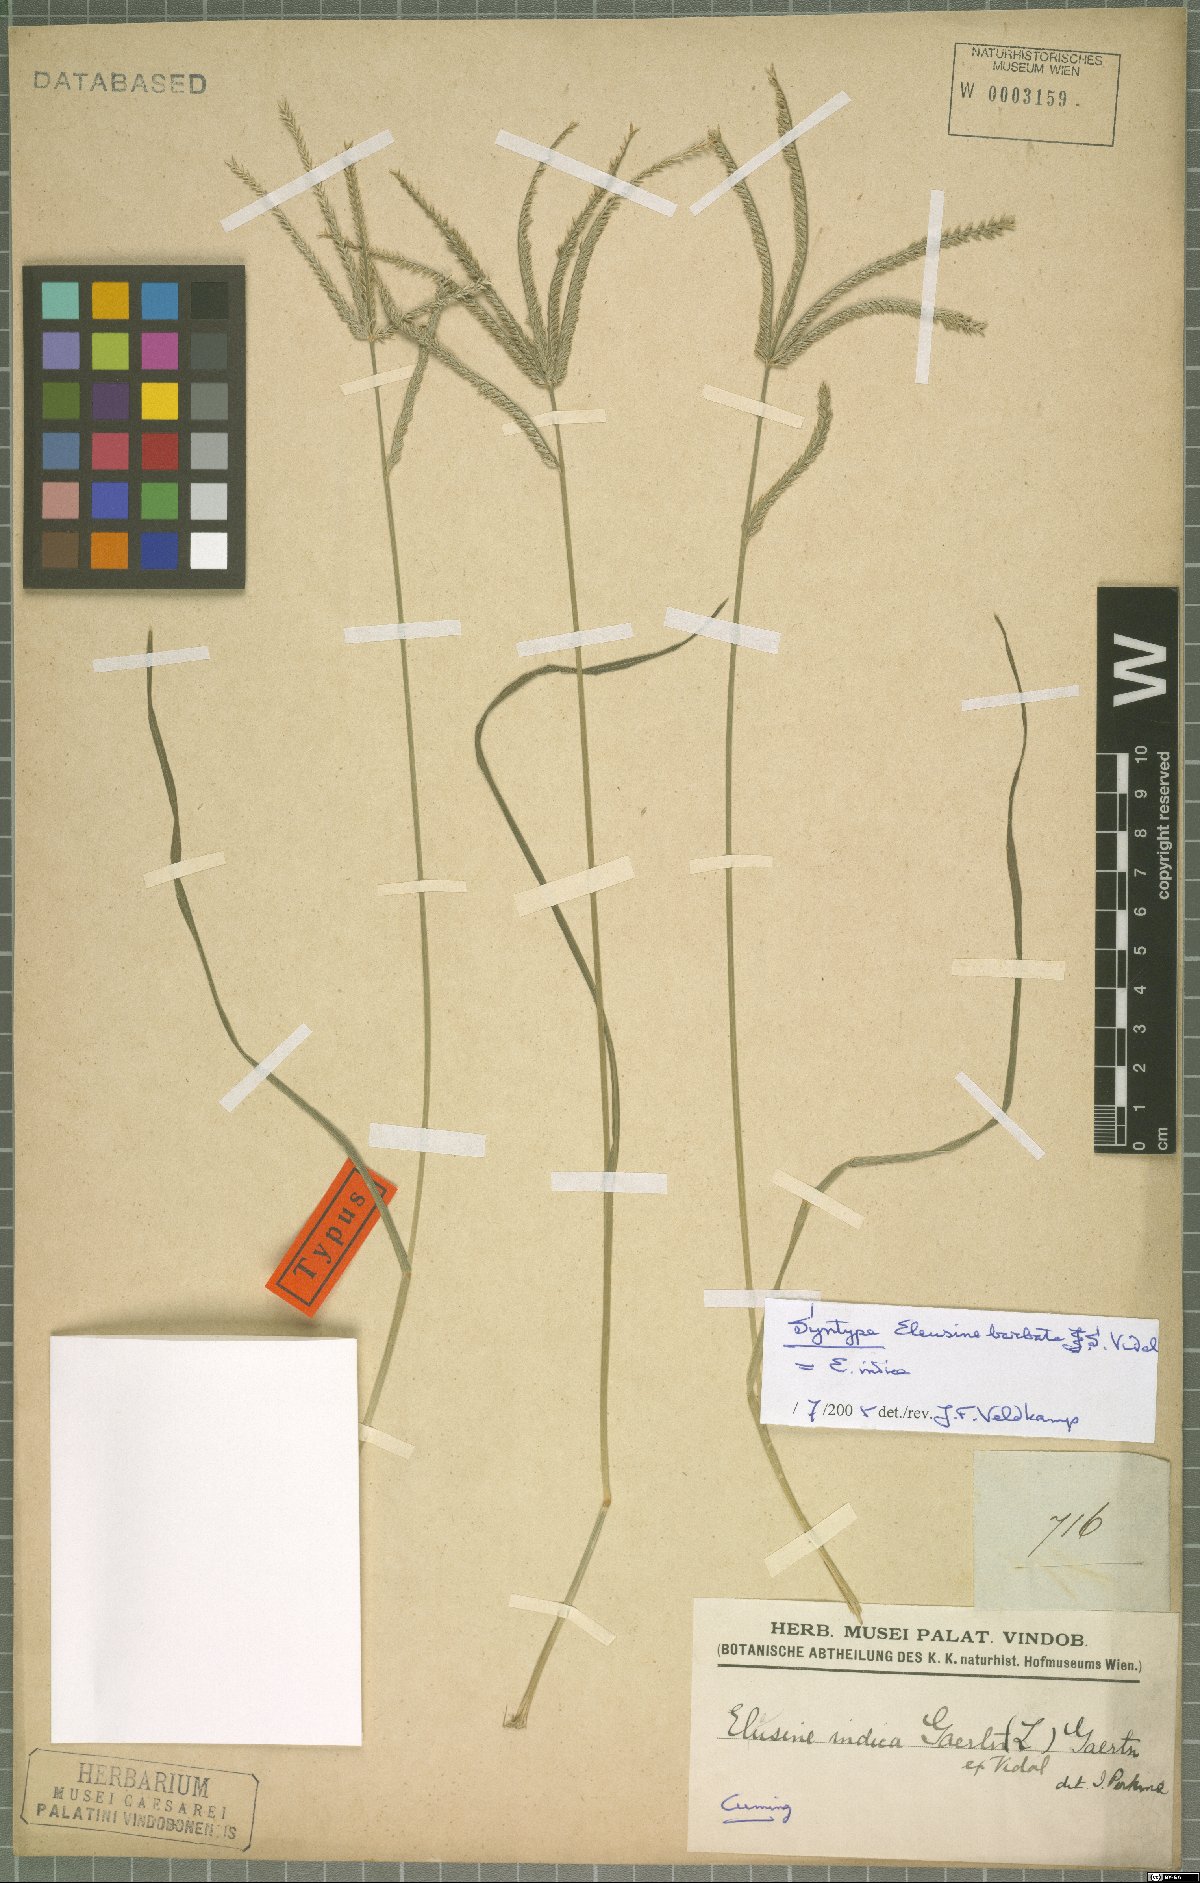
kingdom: Plantae
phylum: Tracheophyta
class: Liliopsida
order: Poales
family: Poaceae
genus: Eleusine
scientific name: Eleusine indica
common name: Yard-grass
